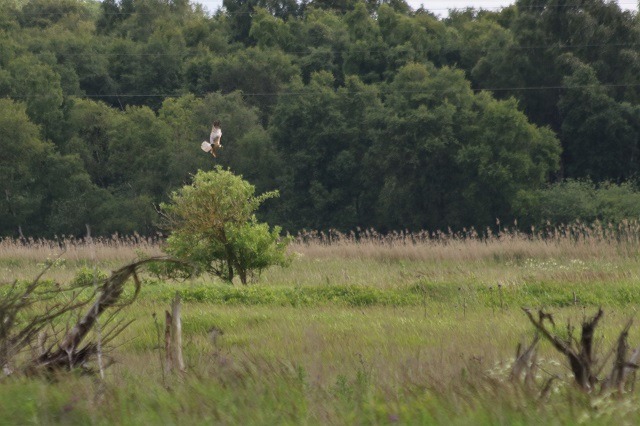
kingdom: Animalia
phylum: Chordata
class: Aves
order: Accipitriformes
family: Accipitridae
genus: Circus
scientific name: Circus aeruginosus
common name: Rørhøg
